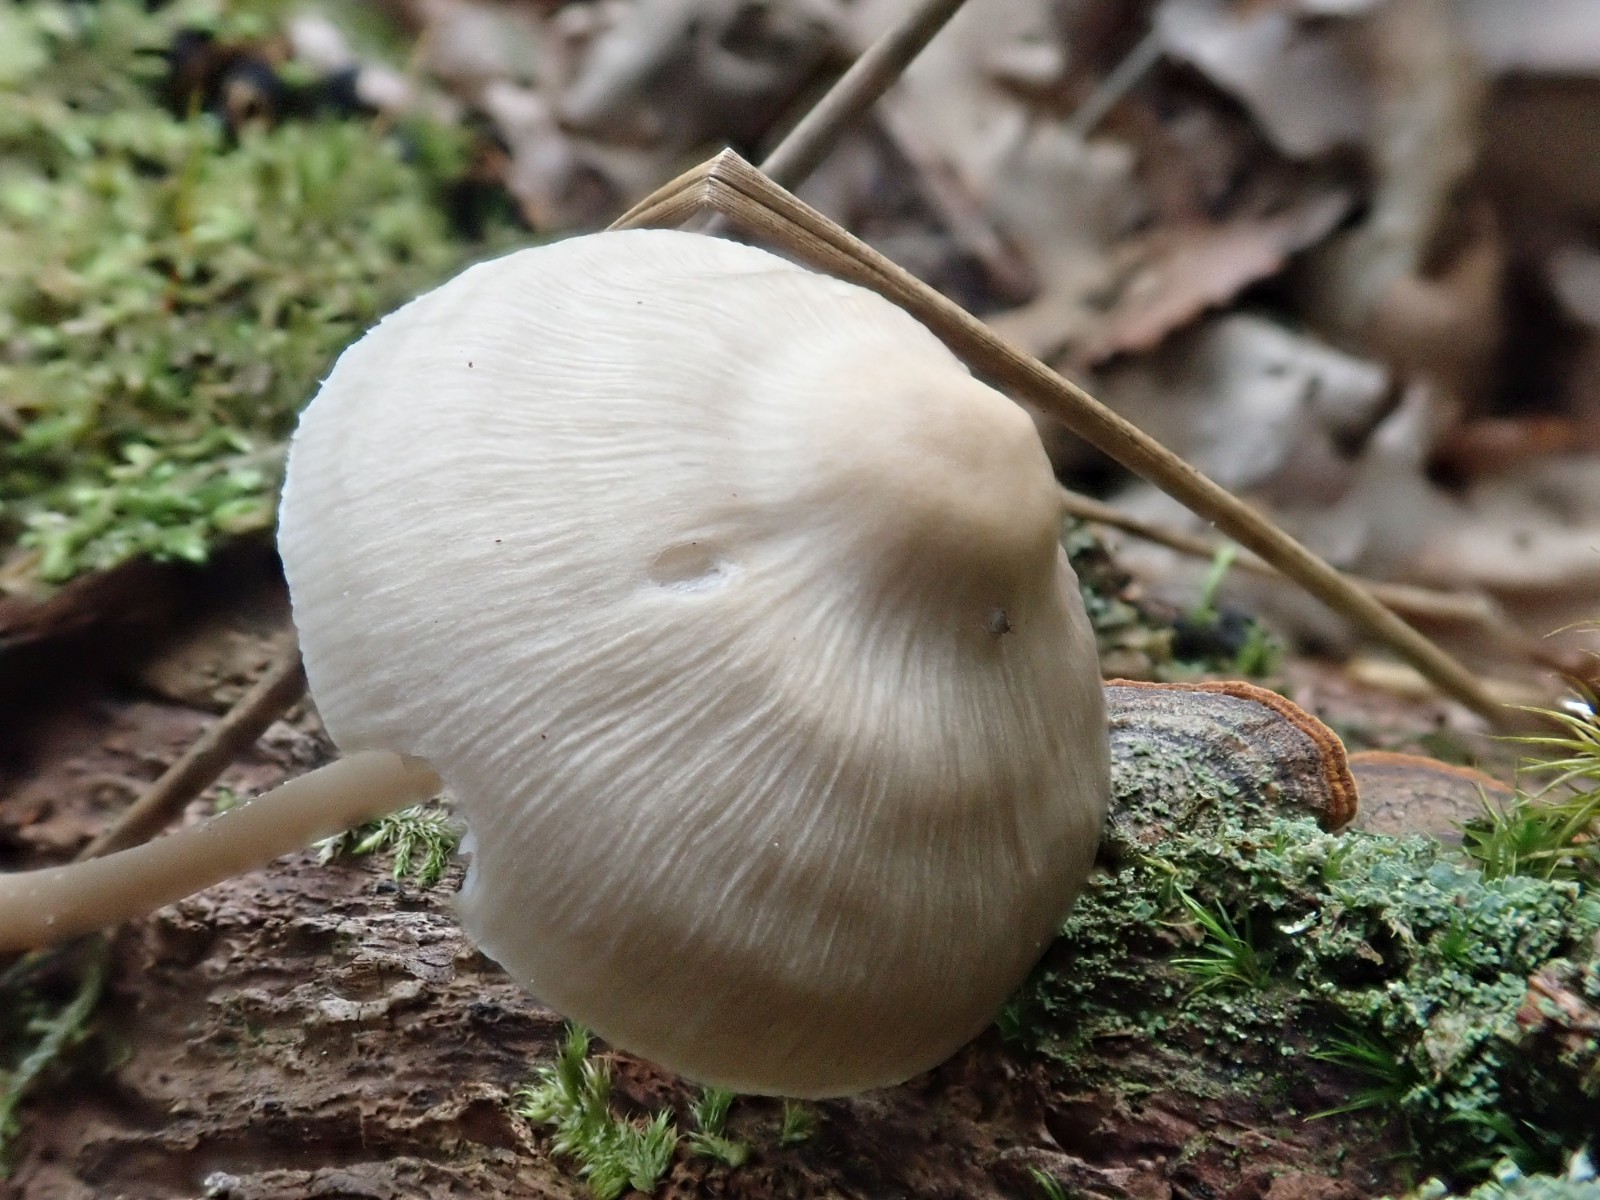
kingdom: Fungi
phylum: Basidiomycota
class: Agaricomycetes
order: Agaricales
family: Mycenaceae
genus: Mycena
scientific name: Mycena galericulata
